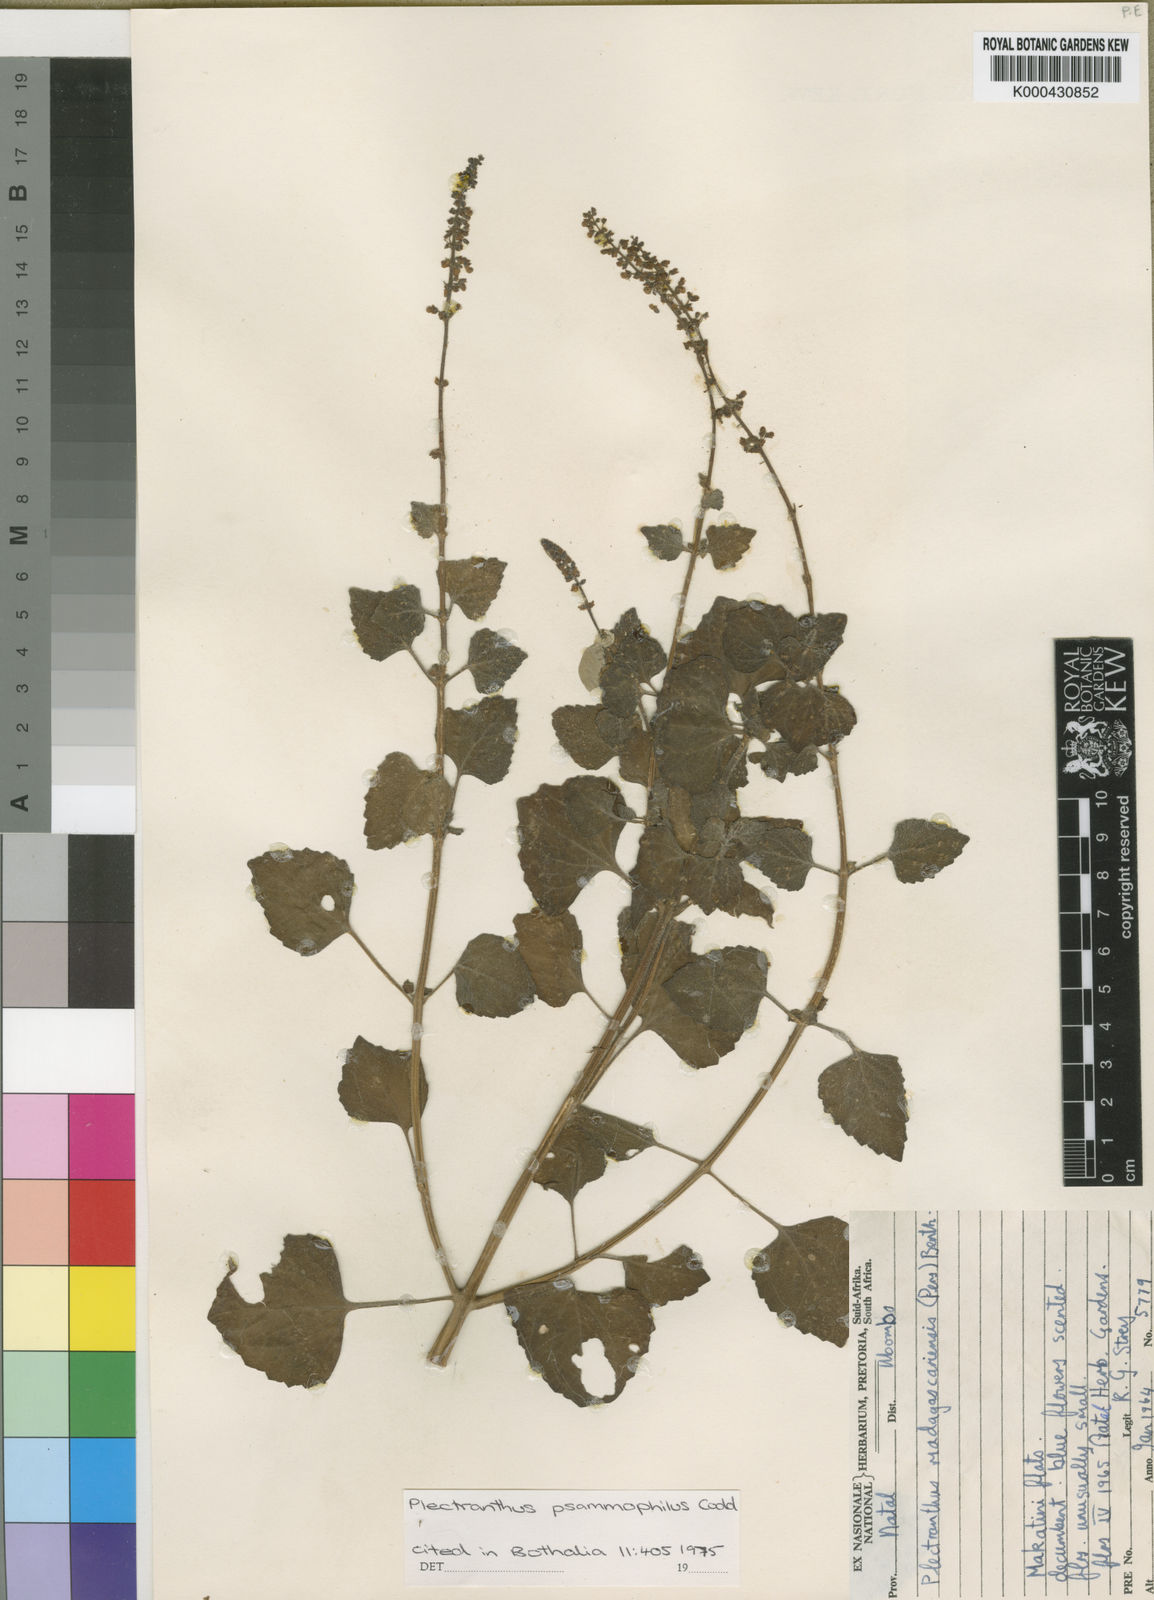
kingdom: Plantae
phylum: Tracheophyta
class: Magnoliopsida
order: Lamiales
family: Lamiaceae
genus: Coleus
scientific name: Coleus psammophilus
